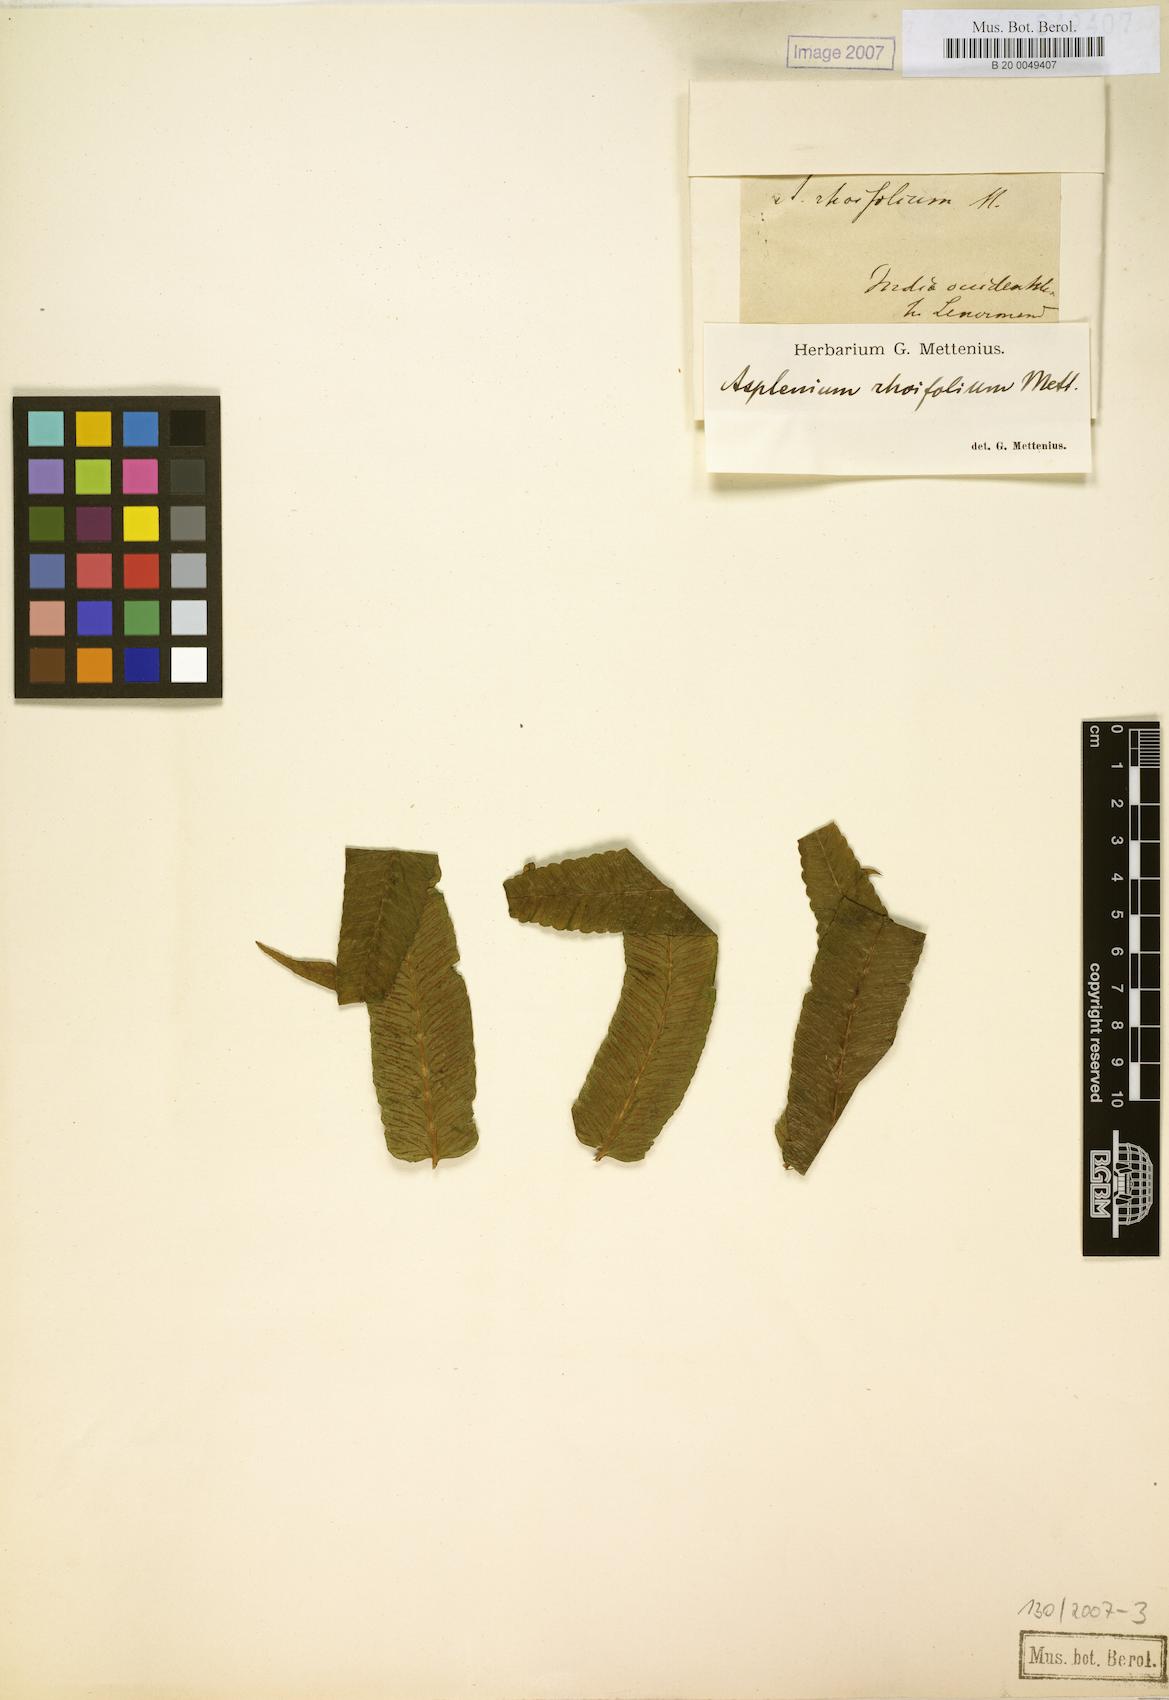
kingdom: Plantae
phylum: Tracheophyta
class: Polypodiopsida
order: Polypodiales
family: Athyriaceae
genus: Diplazium
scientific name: Diplazium rhoifolium
